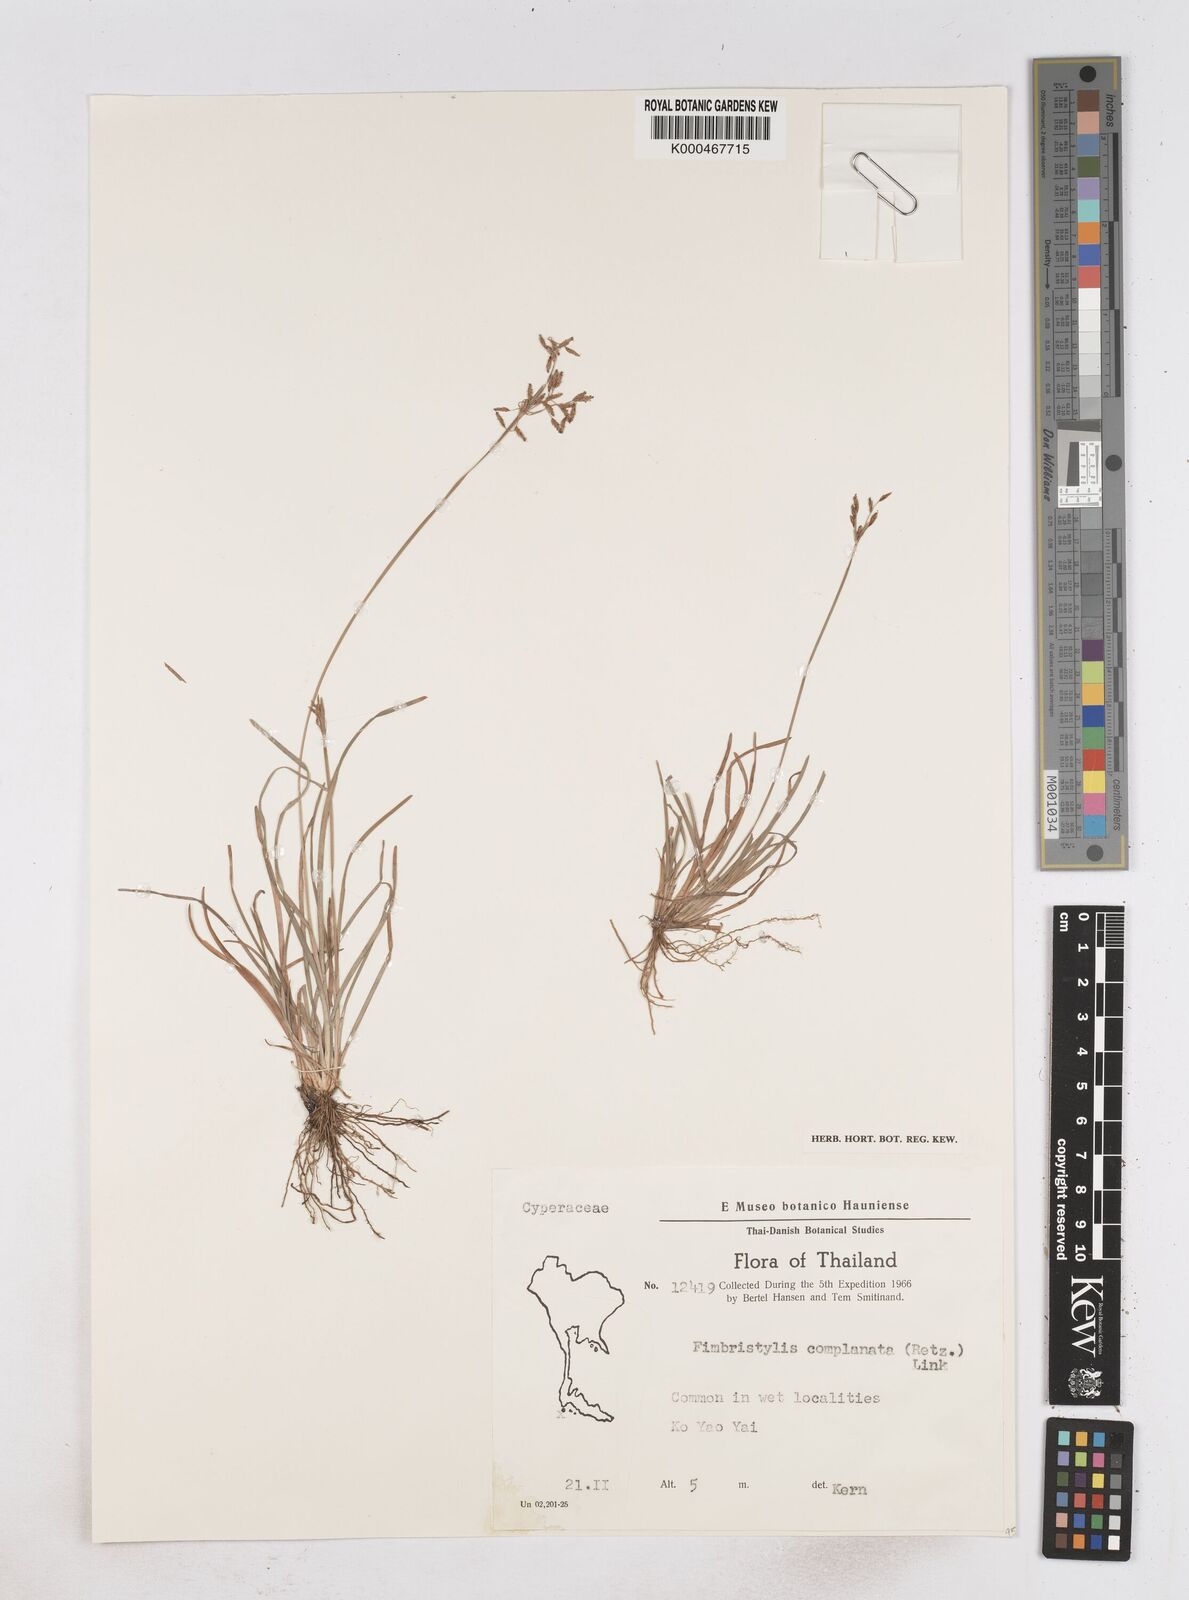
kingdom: Plantae
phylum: Tracheophyta
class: Liliopsida
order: Poales
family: Cyperaceae
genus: Fimbristylis
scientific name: Fimbristylis complanata
